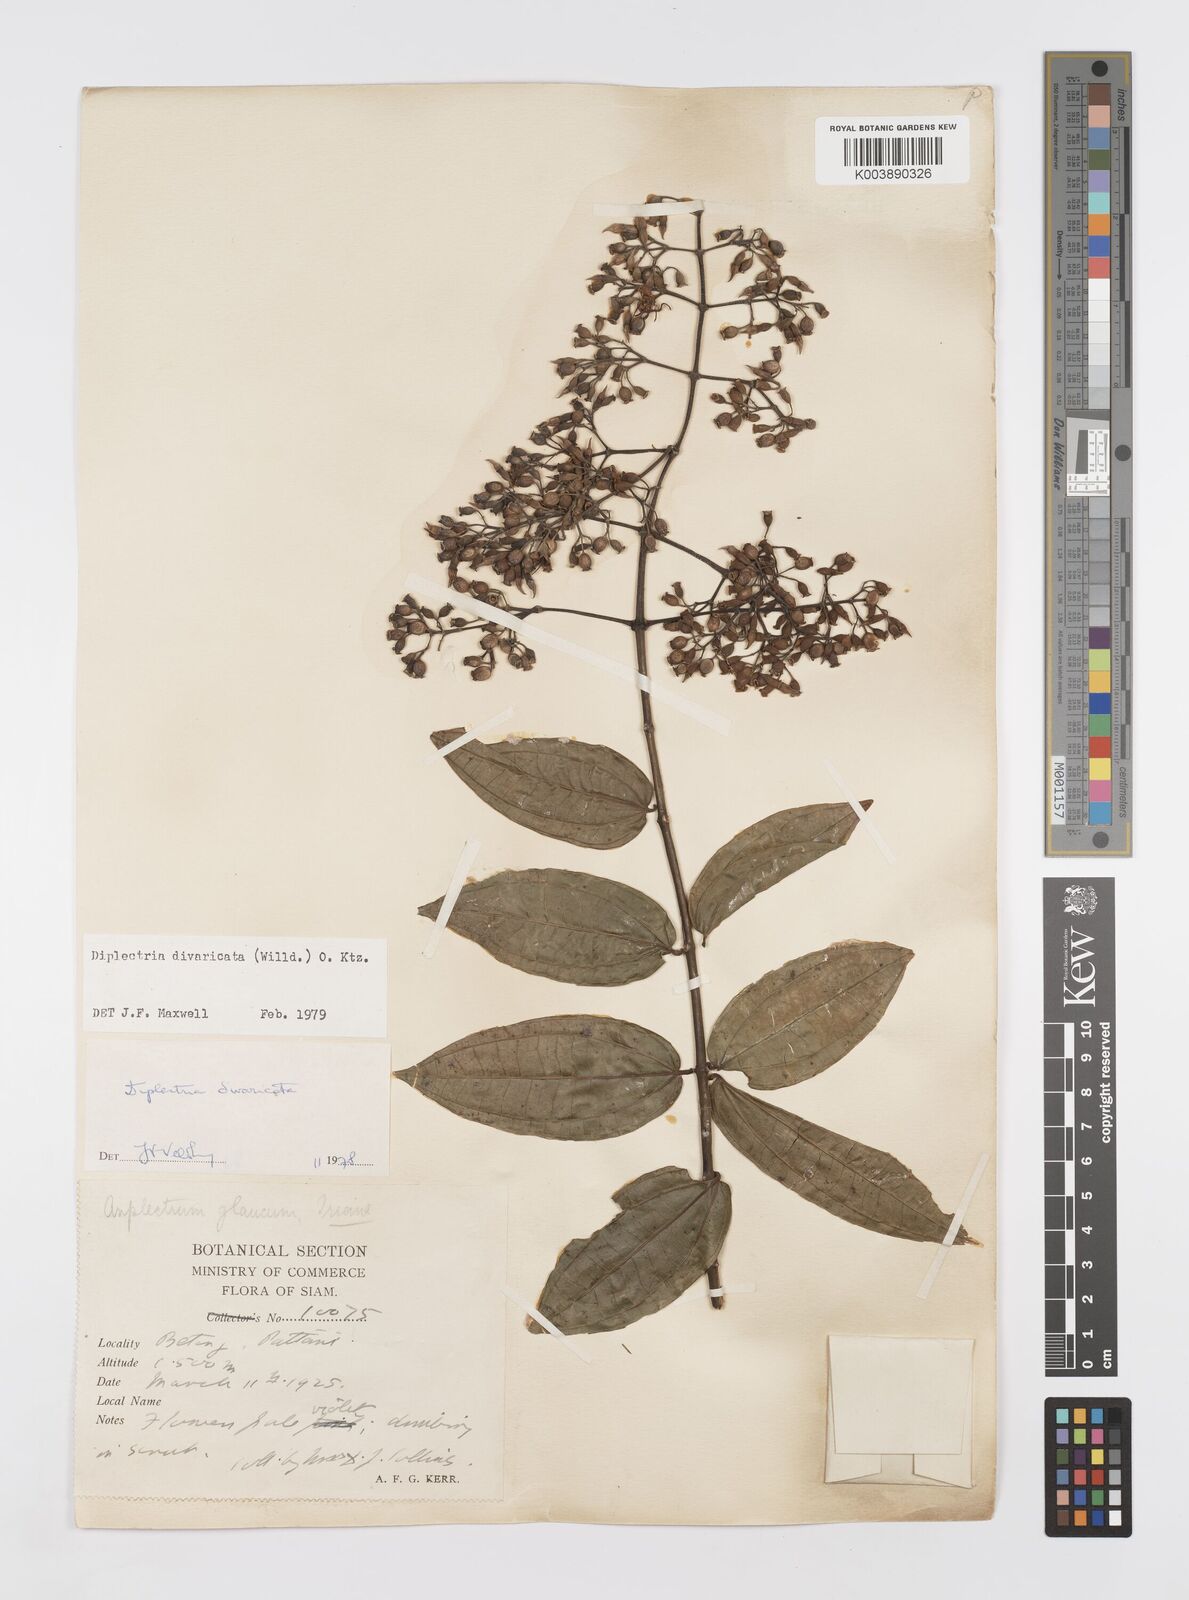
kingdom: Plantae
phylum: Tracheophyta
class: Magnoliopsida
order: Myrtales
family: Melastomataceae
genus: Diplectria
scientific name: Diplectria divaricata
